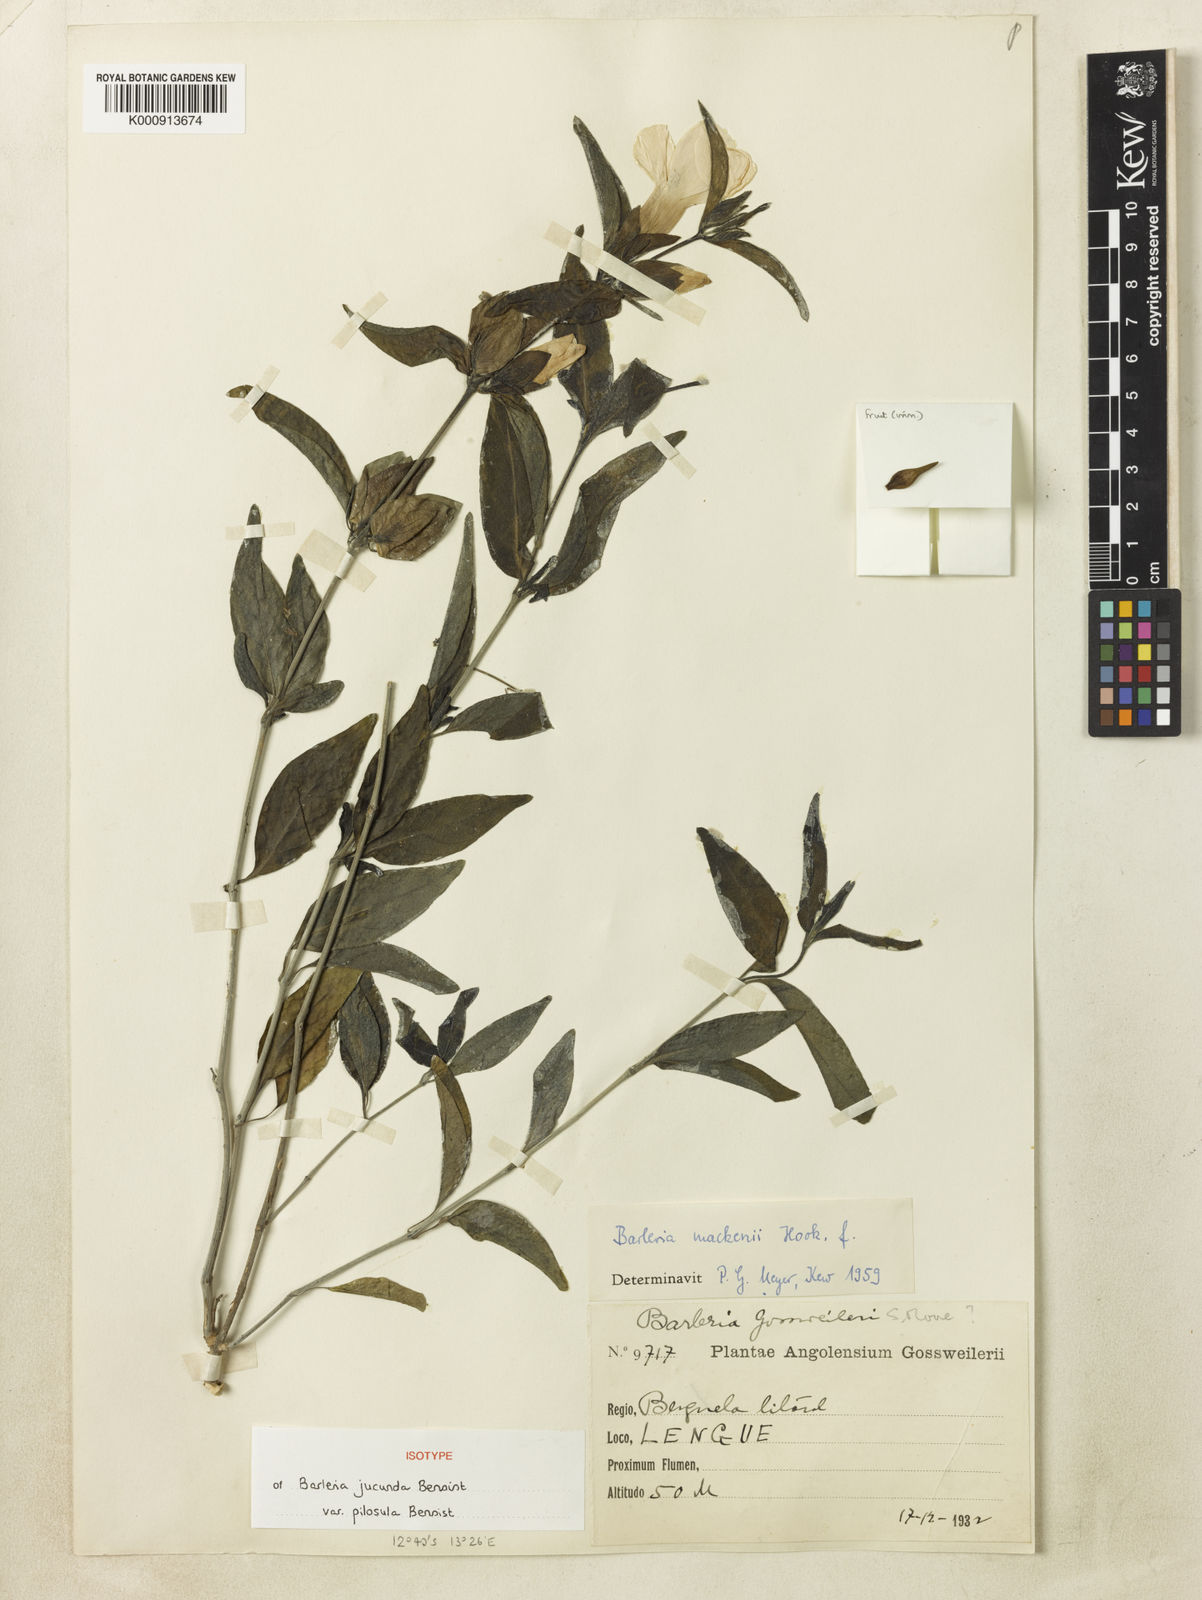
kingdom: Plantae
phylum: Tracheophyta
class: Magnoliopsida
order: Lamiales
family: Acanthaceae
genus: Barleria
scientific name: Barleria mackenii
